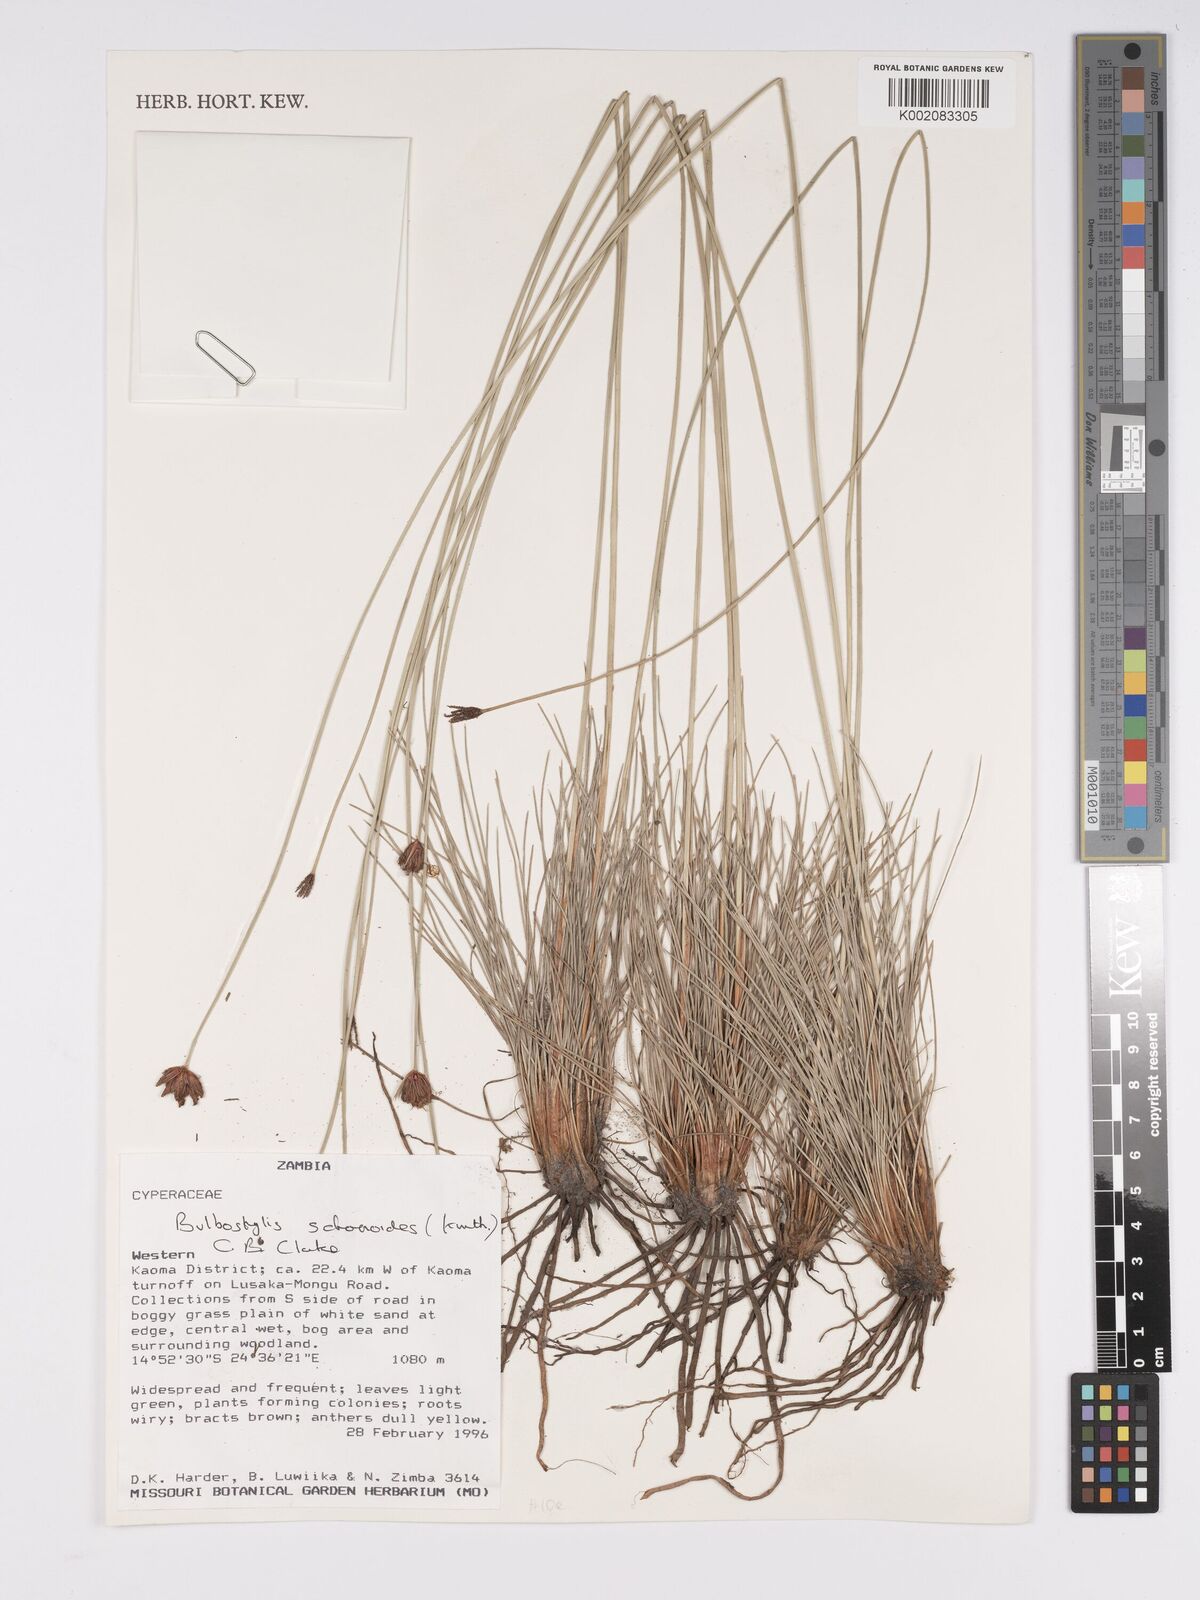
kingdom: Plantae
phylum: Tracheophyta
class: Liliopsida
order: Poales
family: Cyperaceae
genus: Bulbostylis
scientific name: Bulbostylis schoenoides
